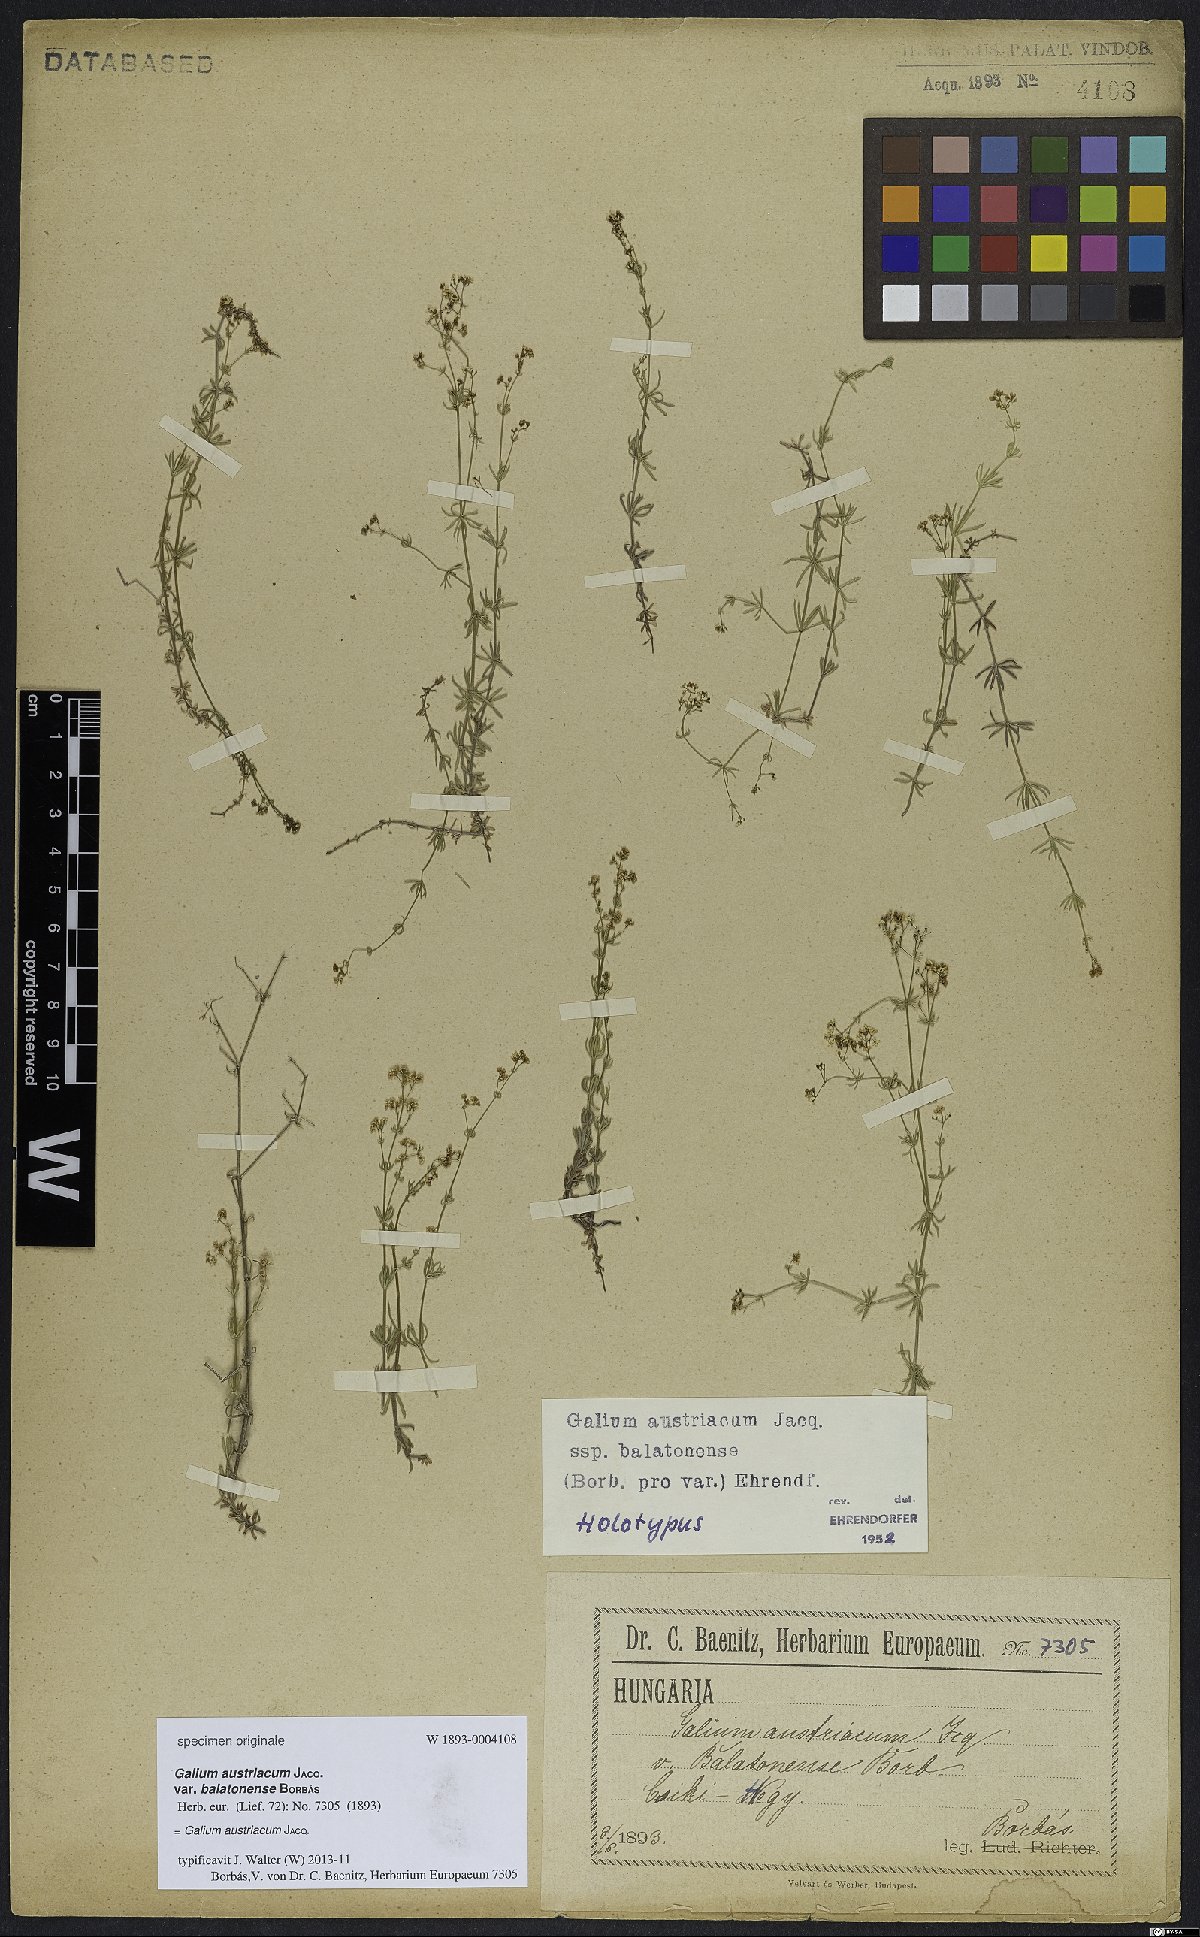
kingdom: Plantae
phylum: Tracheophyta
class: Magnoliopsida
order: Gentianales
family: Rubiaceae
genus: Galium
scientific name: Galium austriacum
